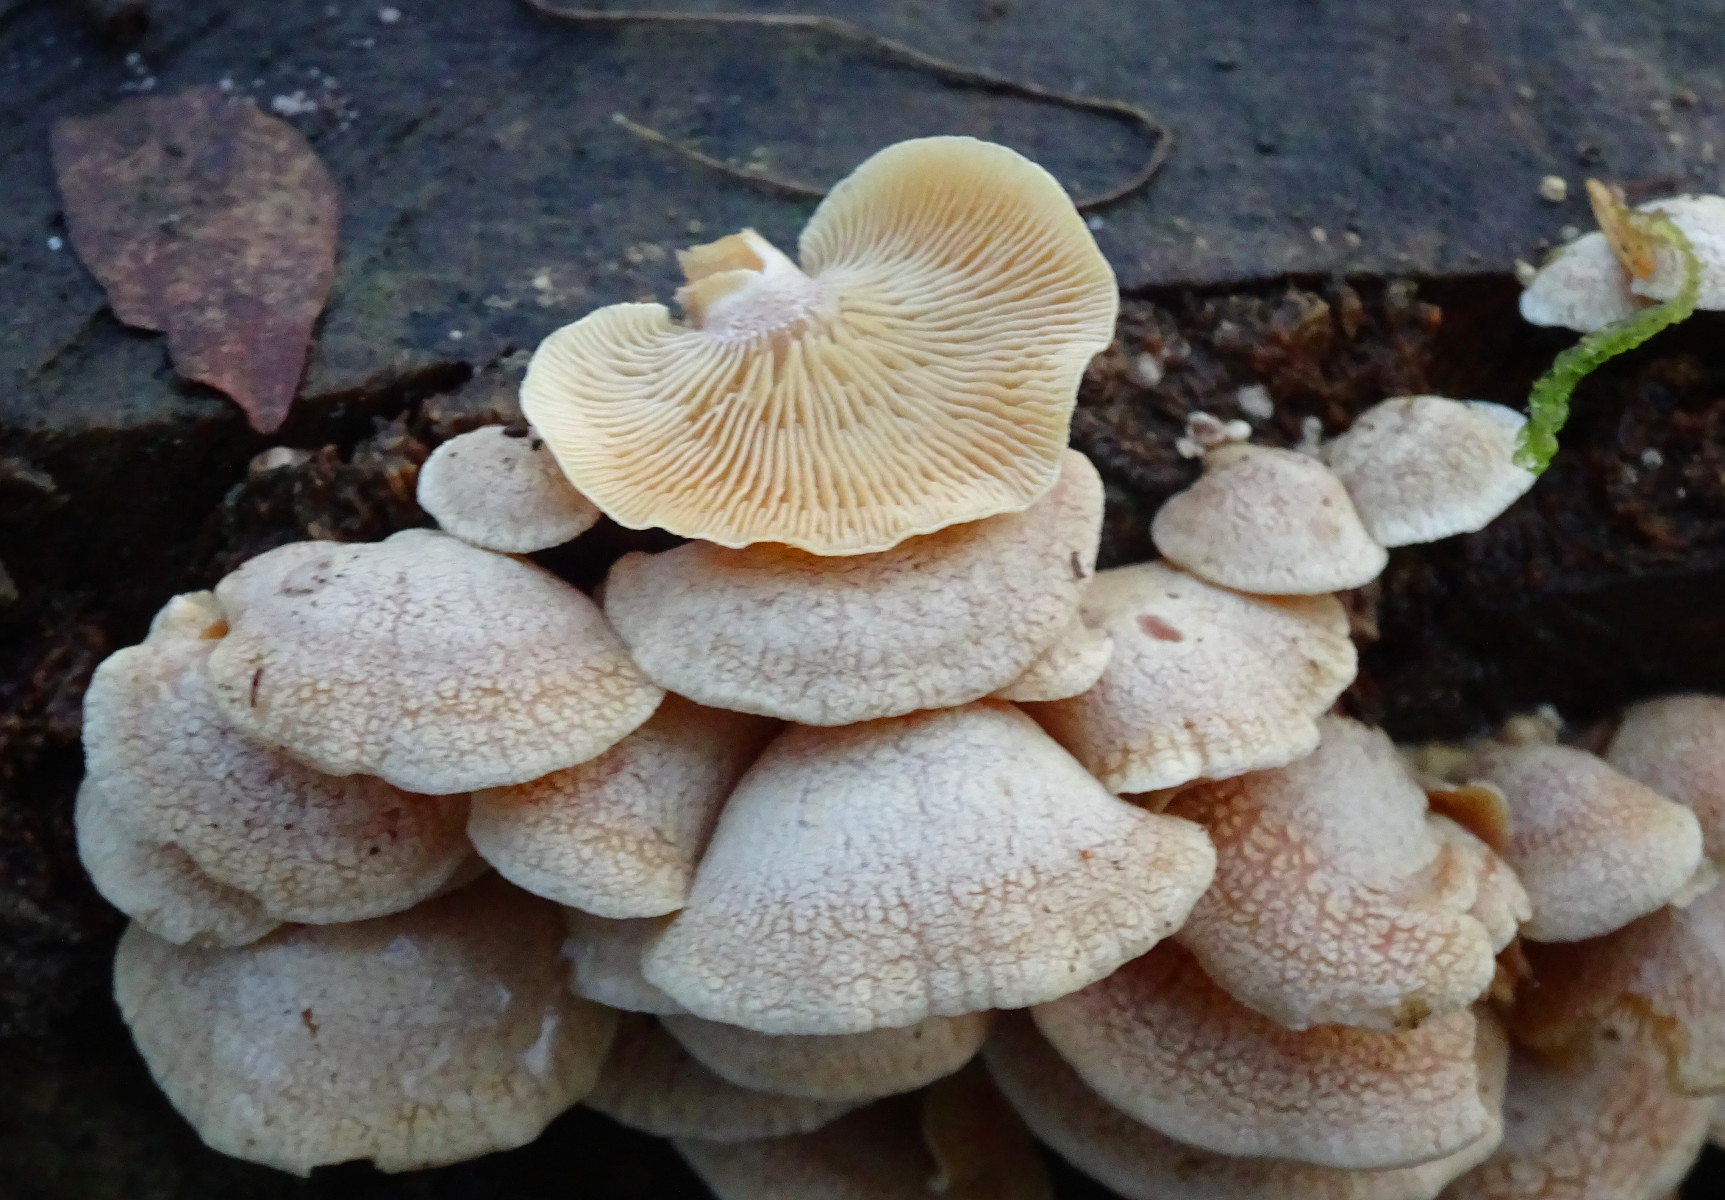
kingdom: Fungi
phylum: Basidiomycota
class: Agaricomycetes
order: Agaricales
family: Mycenaceae
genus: Panellus
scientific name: Panellus stipticus
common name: kliddet epaulethat
